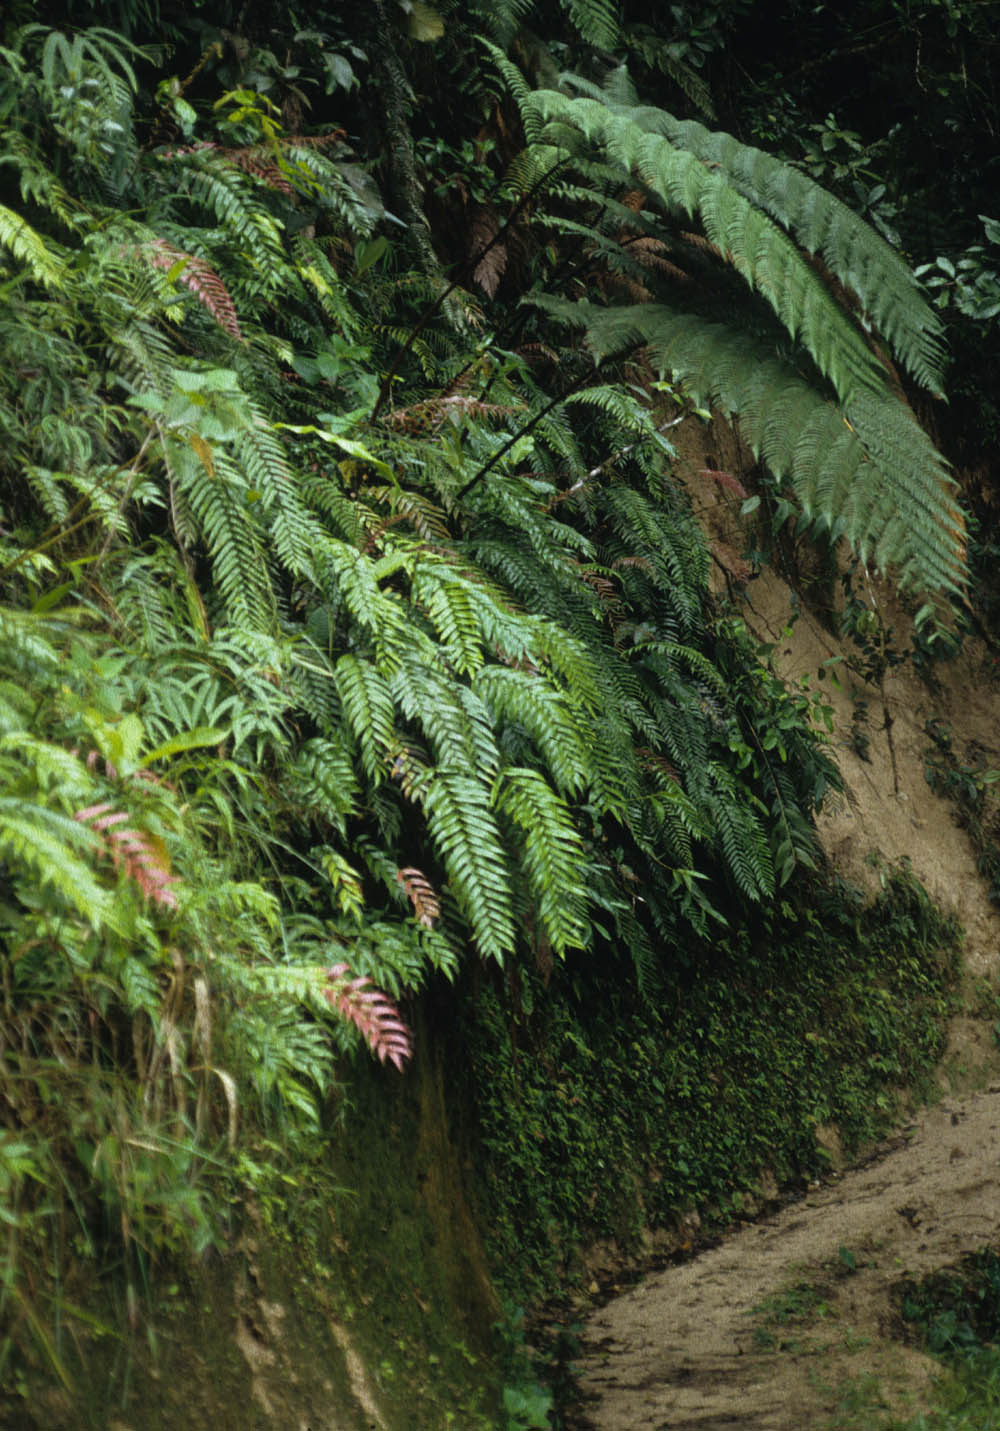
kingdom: Plantae
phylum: Tracheophyta
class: Polypodiopsida
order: Polypodiales
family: Blechnaceae
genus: Parablechnum
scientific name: Parablechnum cordatum
